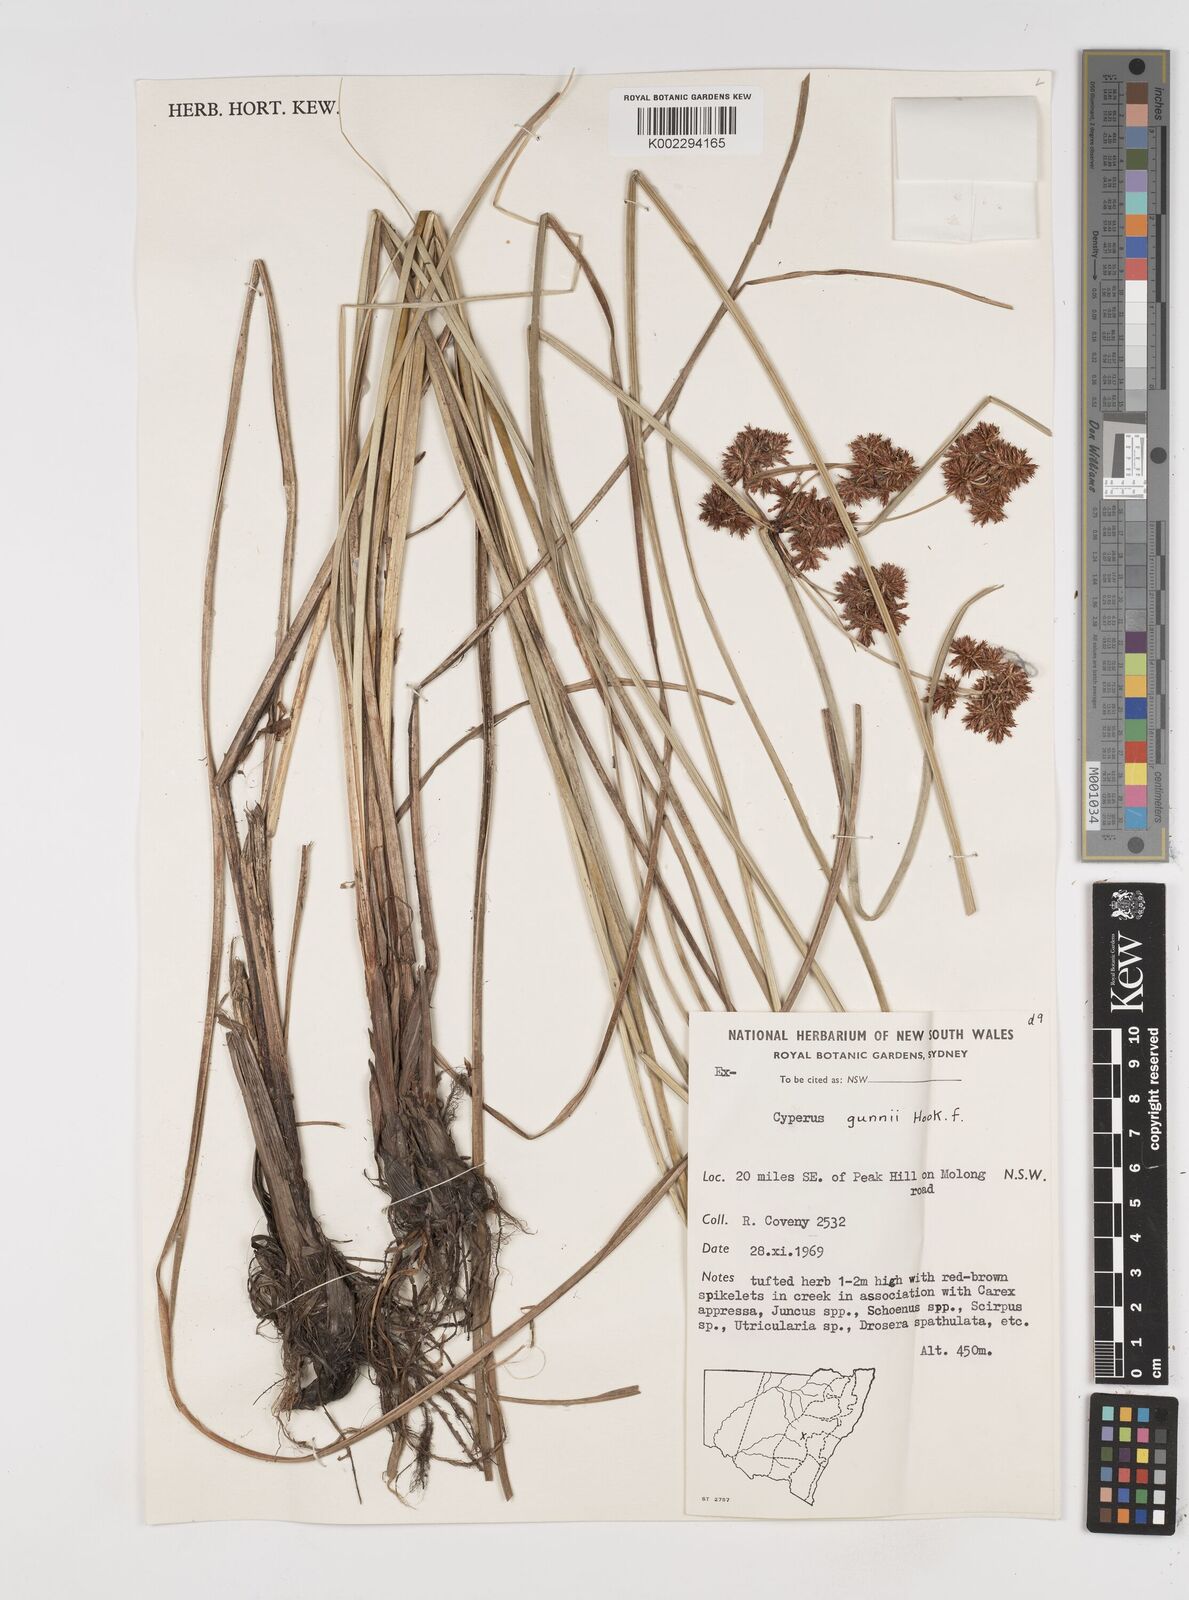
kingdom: Plantae
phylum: Tracheophyta
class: Liliopsida
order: Poales
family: Cyperaceae
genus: Cyperus
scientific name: Cyperus gunnii
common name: Flecked flat-sedge
